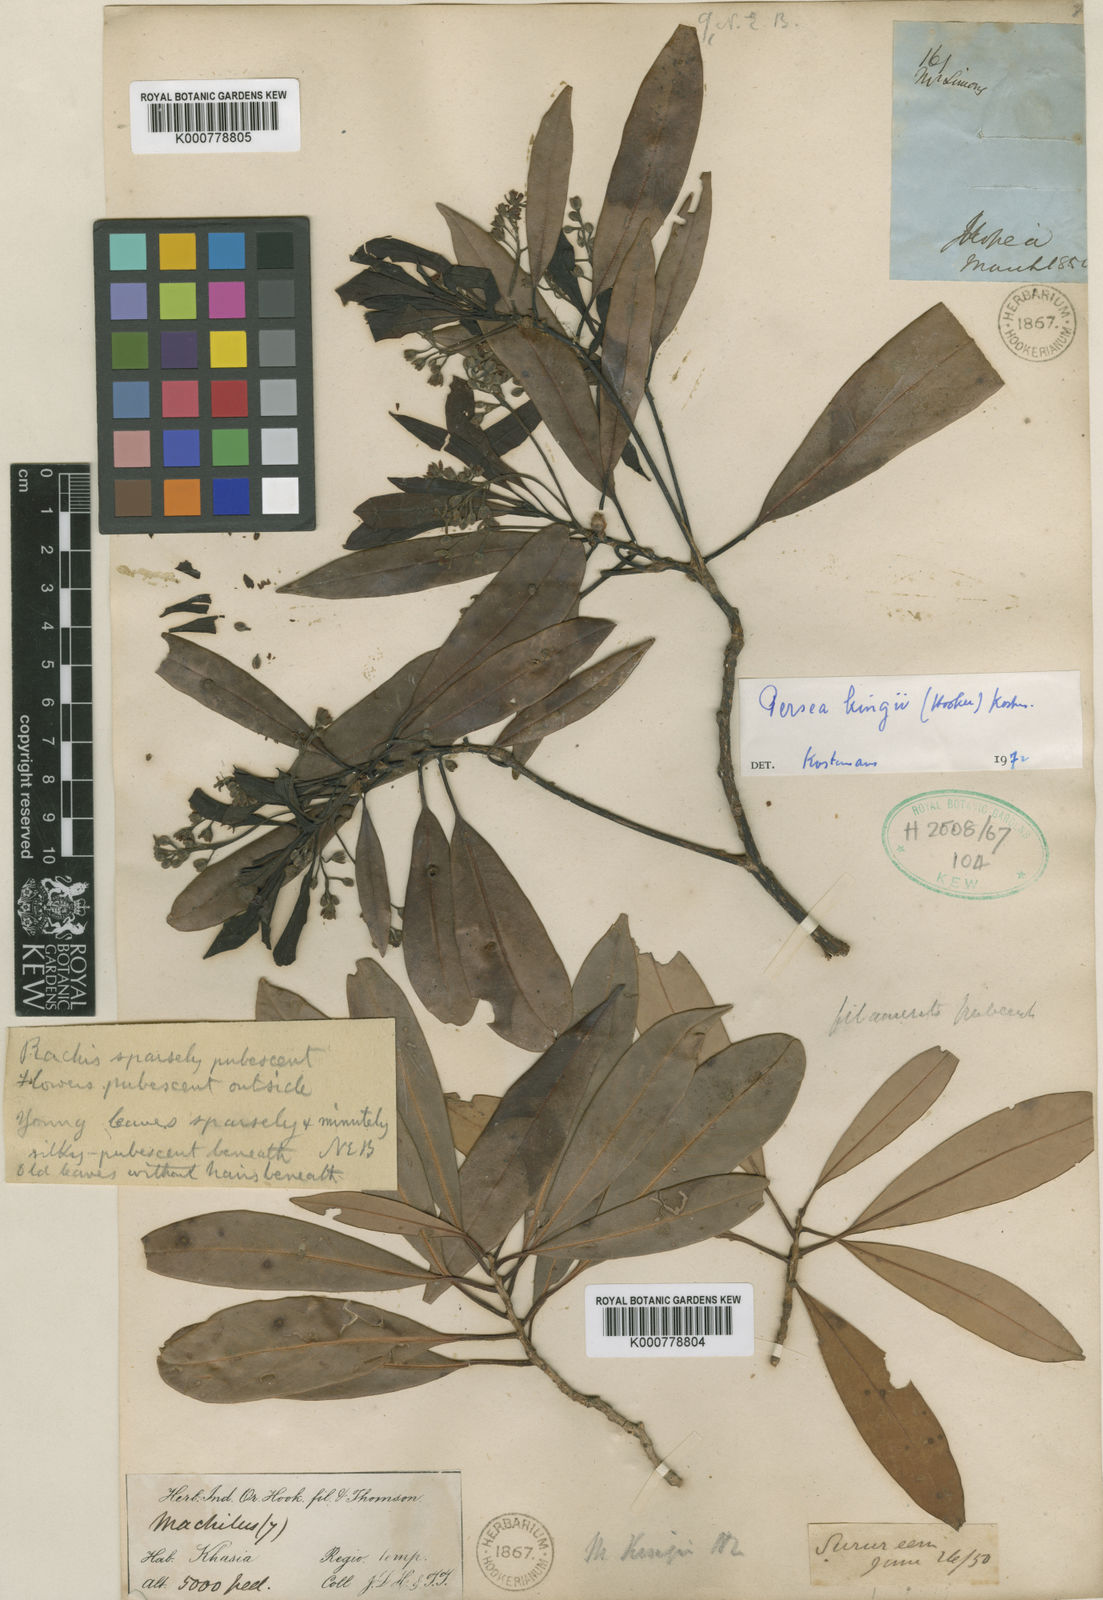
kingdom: Plantae
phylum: Tracheophyta
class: Magnoliopsida
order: Laurales
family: Lauraceae
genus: Machilus
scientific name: Machilus kingii
